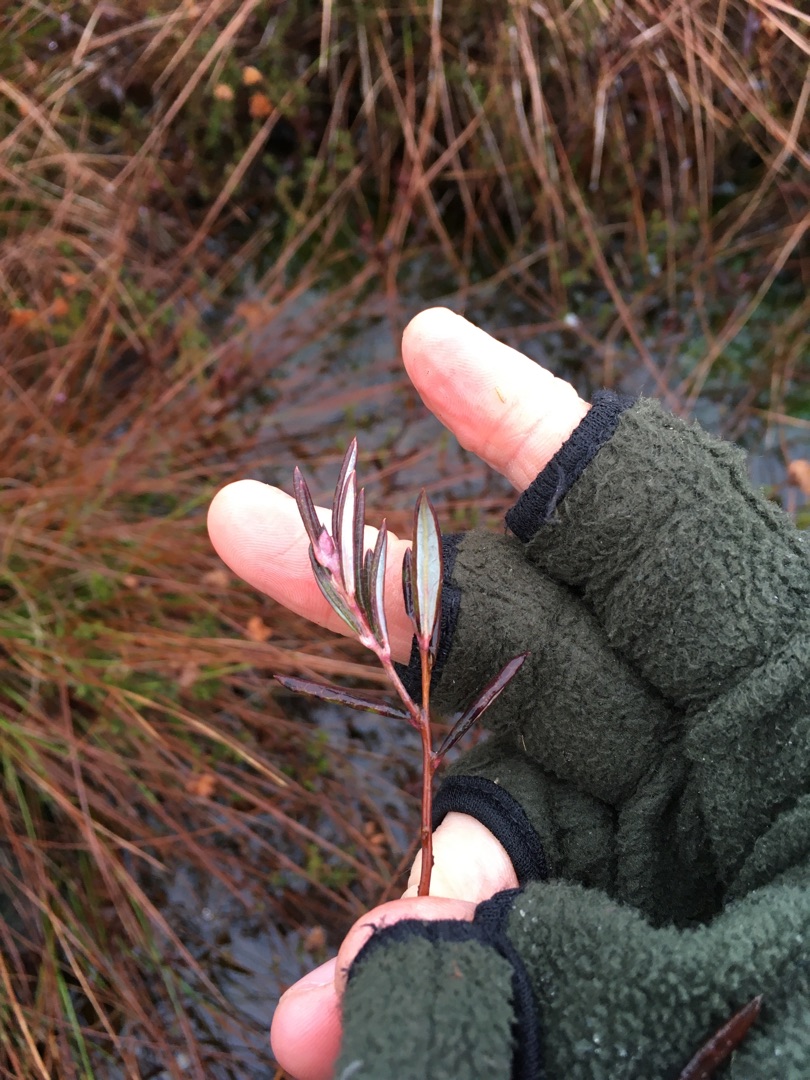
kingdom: Plantae
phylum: Tracheophyta
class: Magnoliopsida
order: Ericales
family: Ericaceae
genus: Andromeda
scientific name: Andromeda polifolia
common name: Rosmarinlyng
